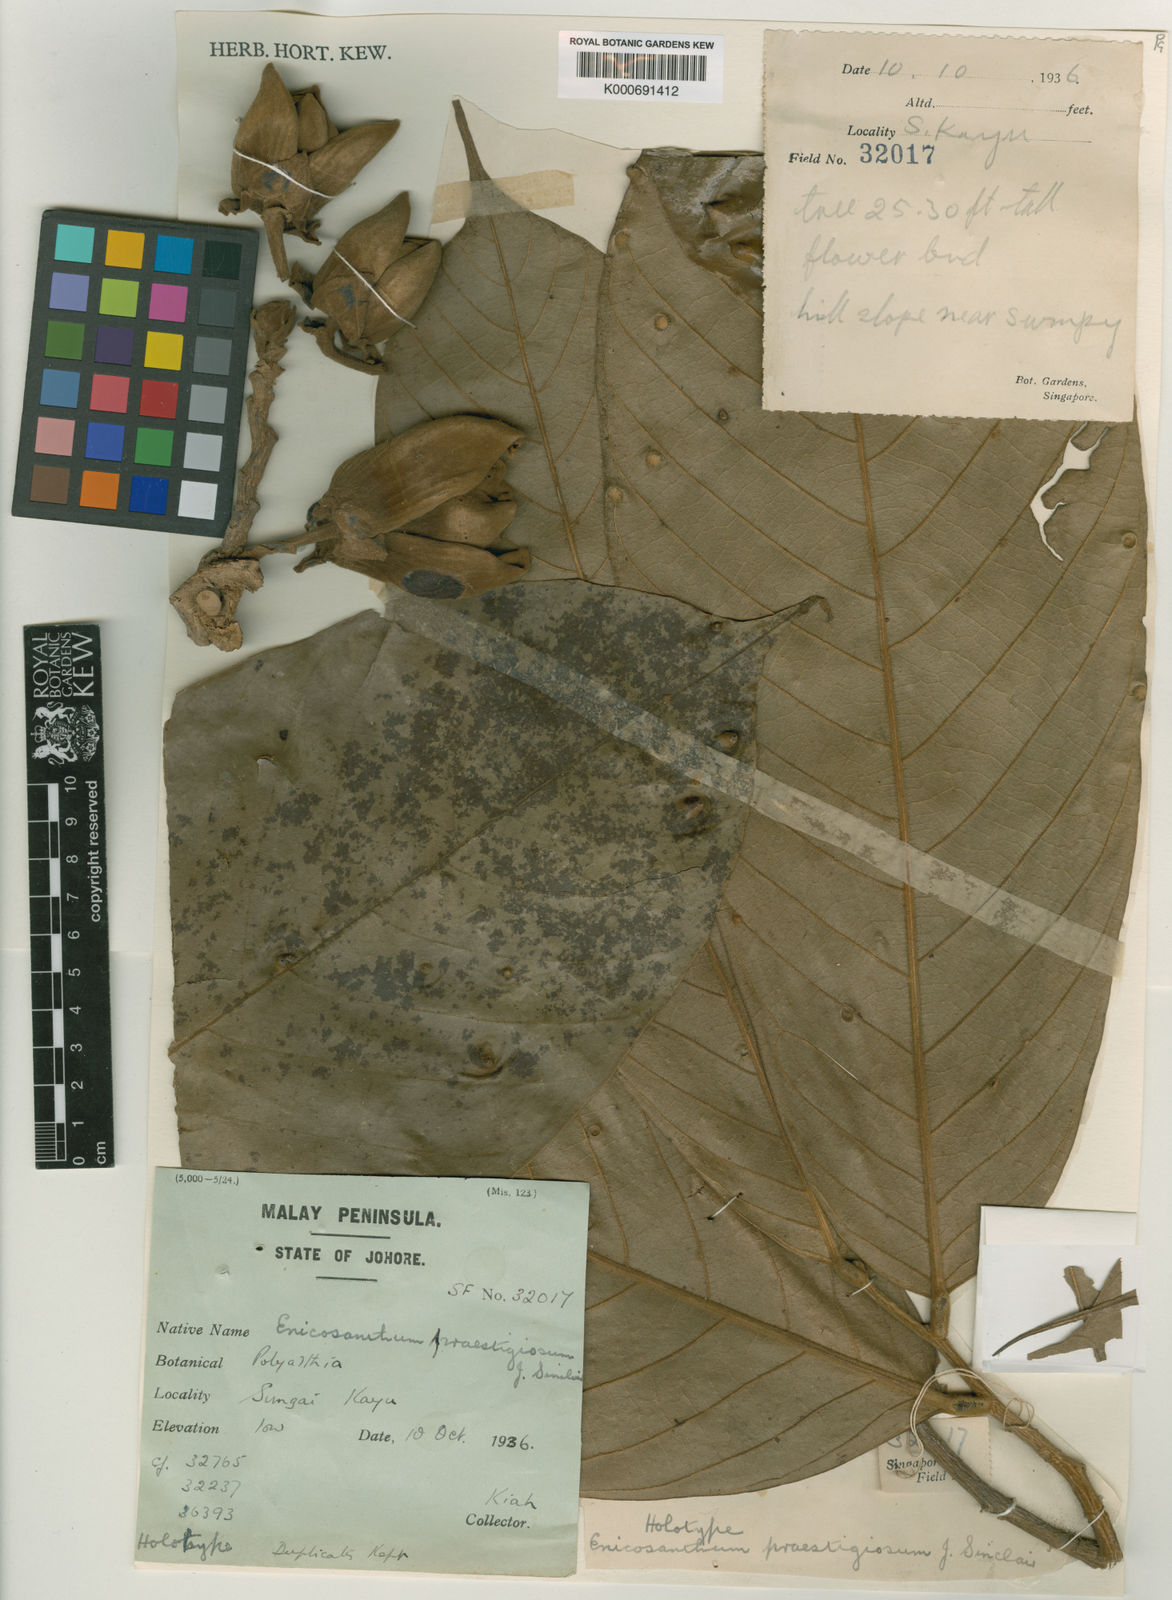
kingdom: Plantae
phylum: Tracheophyta
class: Magnoliopsida
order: Magnoliales
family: Annonaceae
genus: Enicosanthum
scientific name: Enicosanthum praestigiosum
